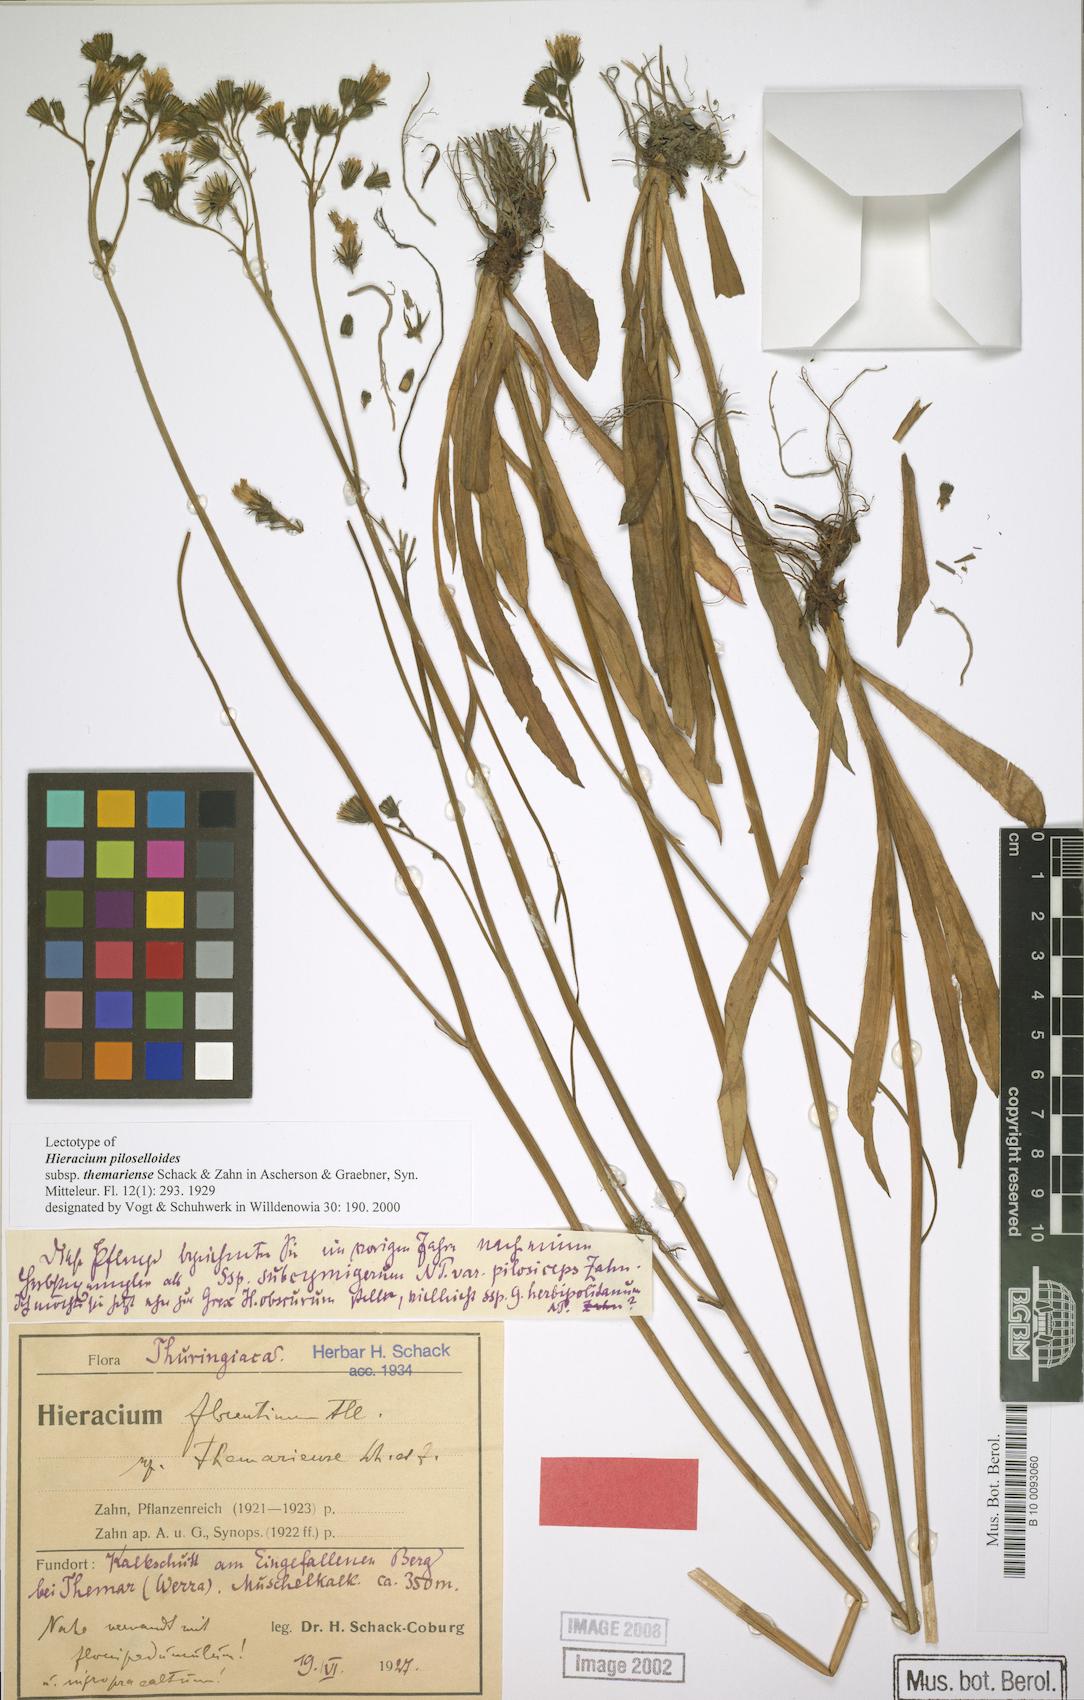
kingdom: Plantae
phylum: Tracheophyta
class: Magnoliopsida
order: Asterales
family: Asteraceae
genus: Pilosella
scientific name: Pilosella piloselloides
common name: Glaucous king-devil
